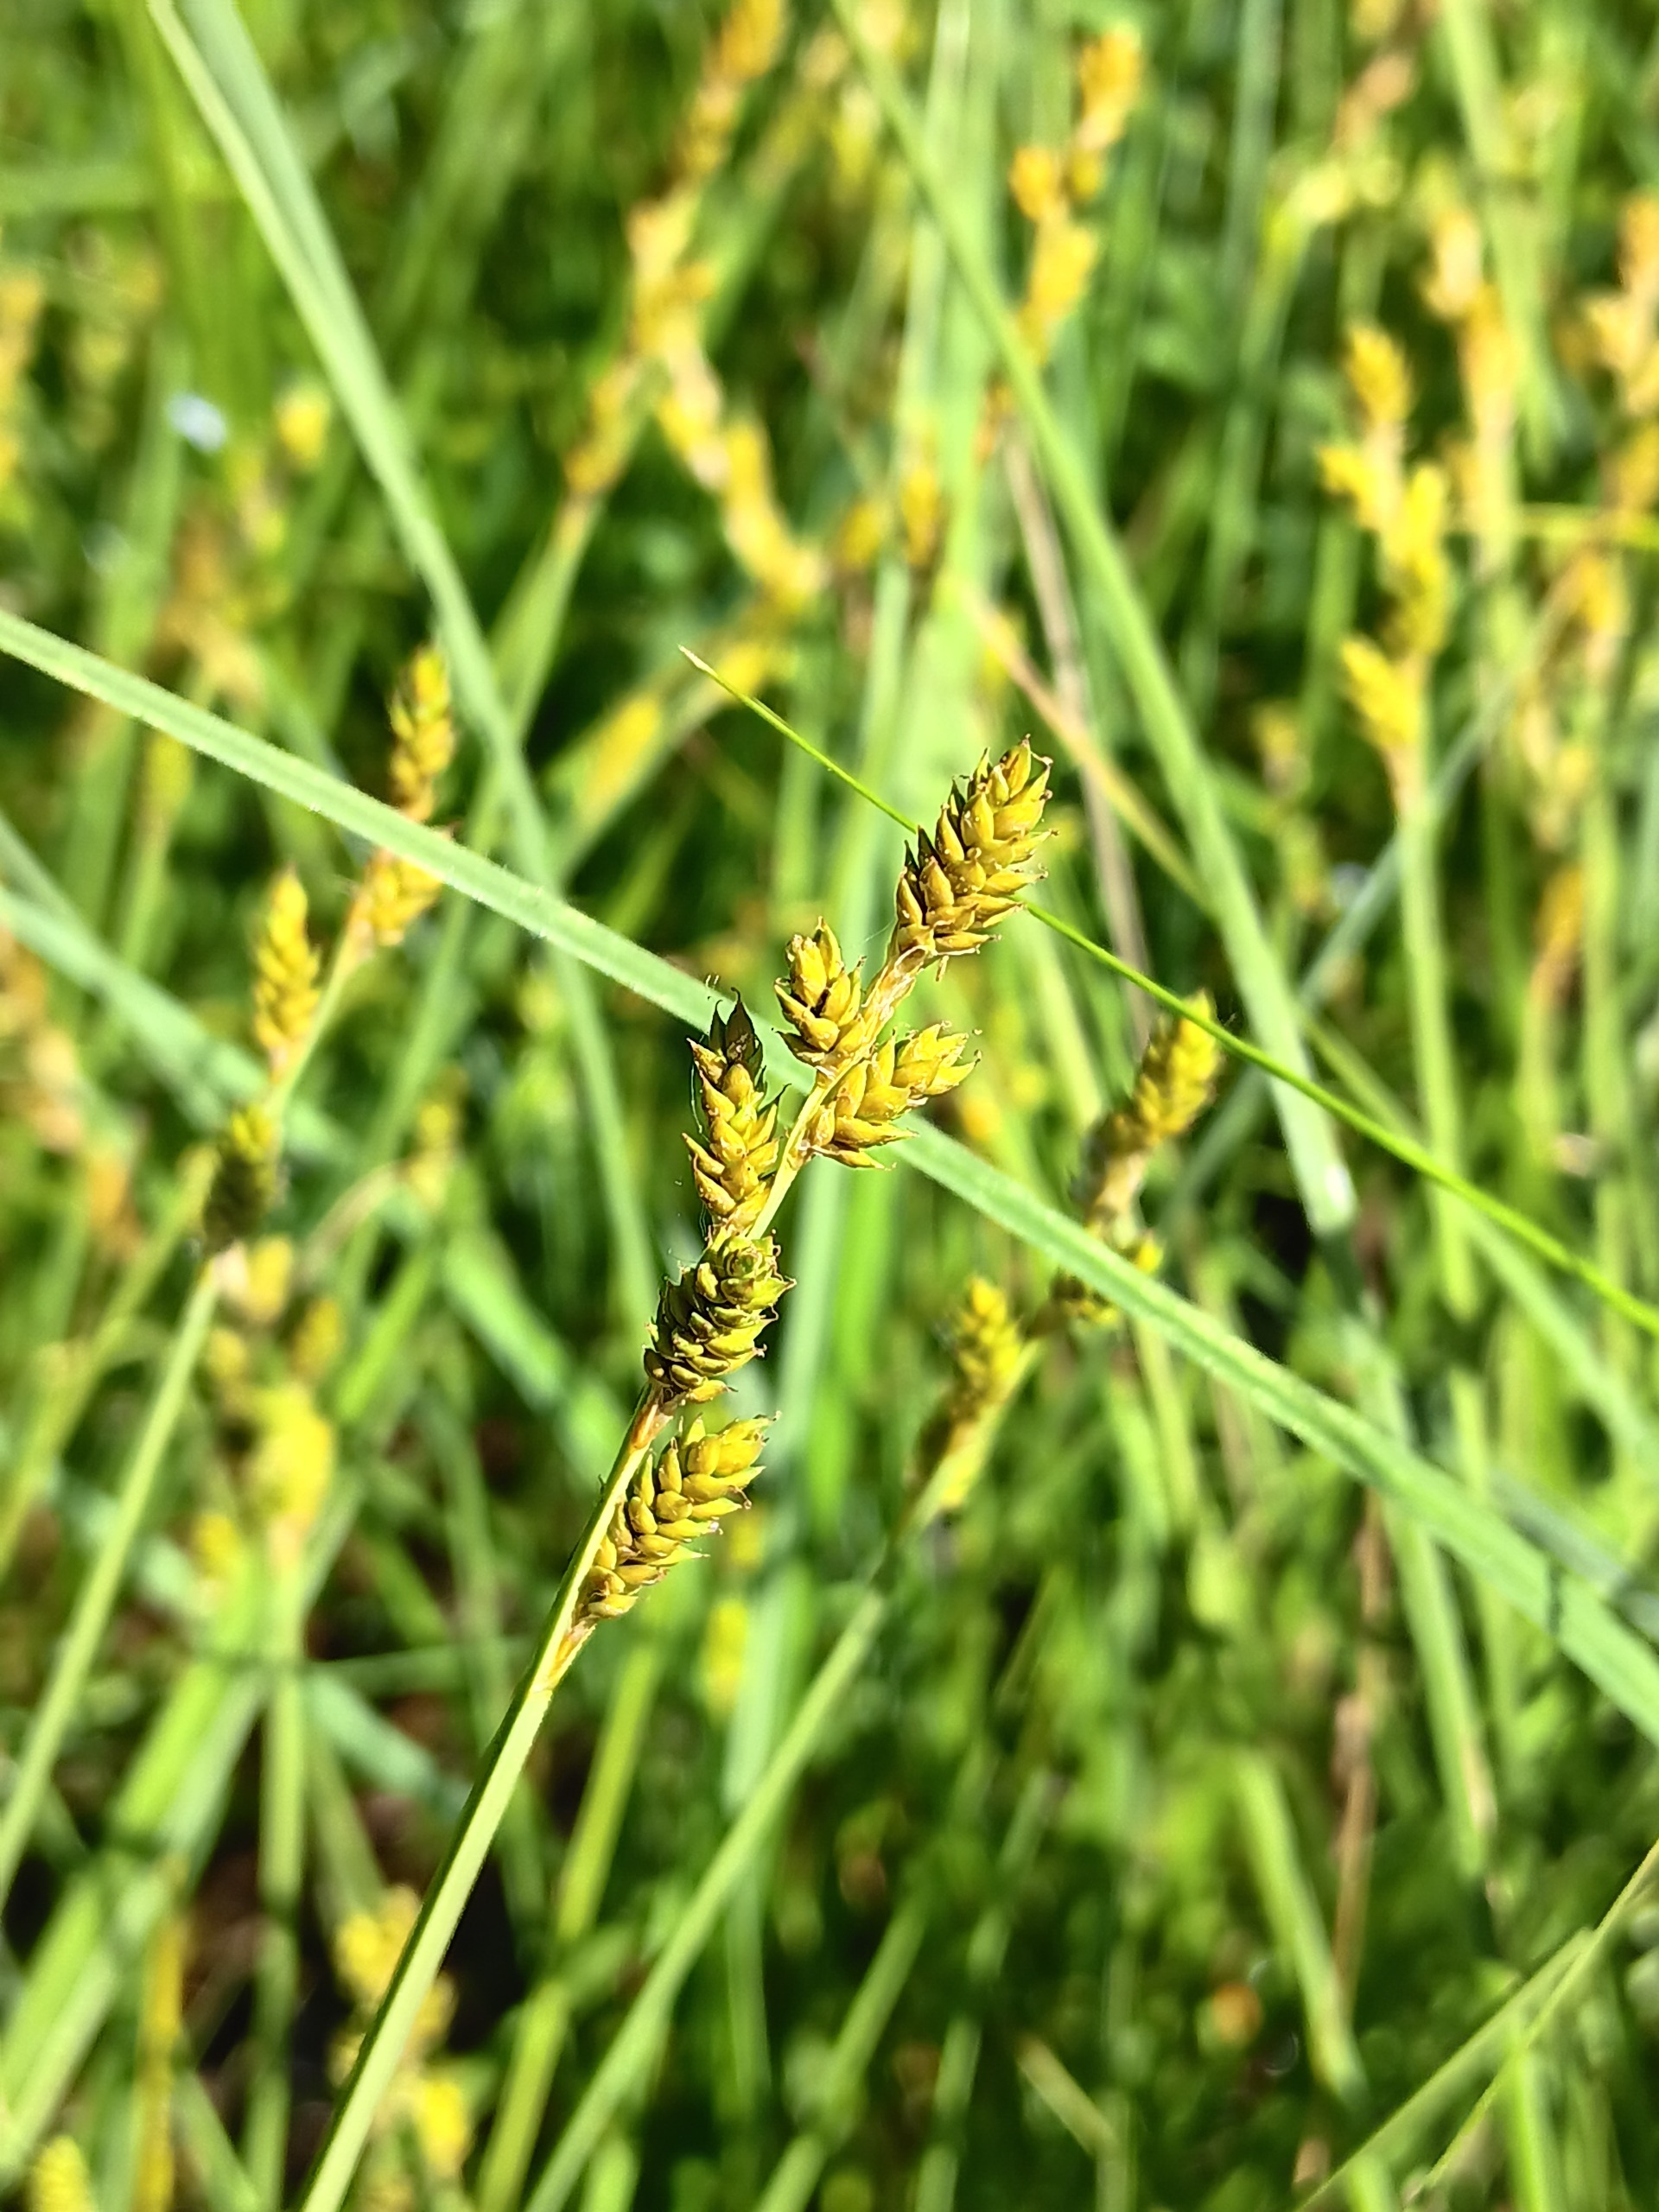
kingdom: Plantae
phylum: Tracheophyta
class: Liliopsida
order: Poales
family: Cyperaceae
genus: Carex
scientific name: Carex canescens
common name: Grå star
